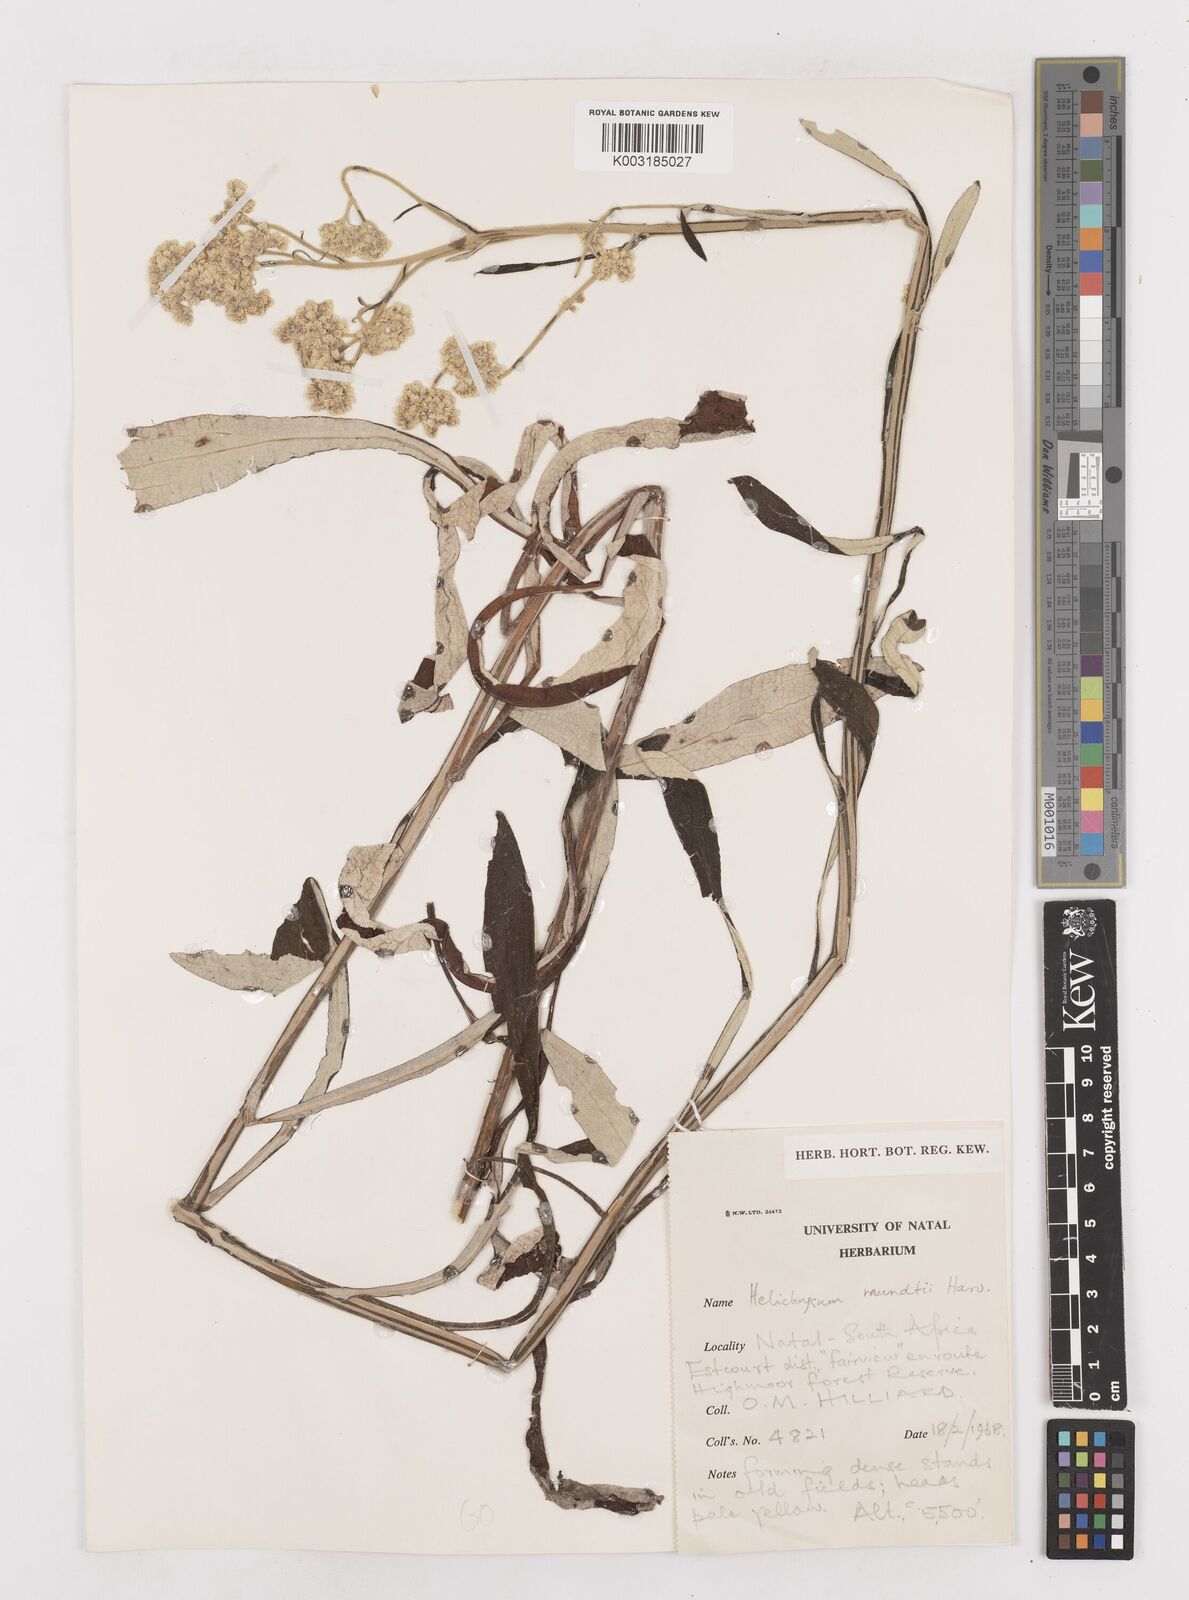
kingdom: Plantae
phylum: Tracheophyta
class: Magnoliopsida
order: Asterales
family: Asteraceae
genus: Helichrysum
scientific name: Helichrysum mundii
